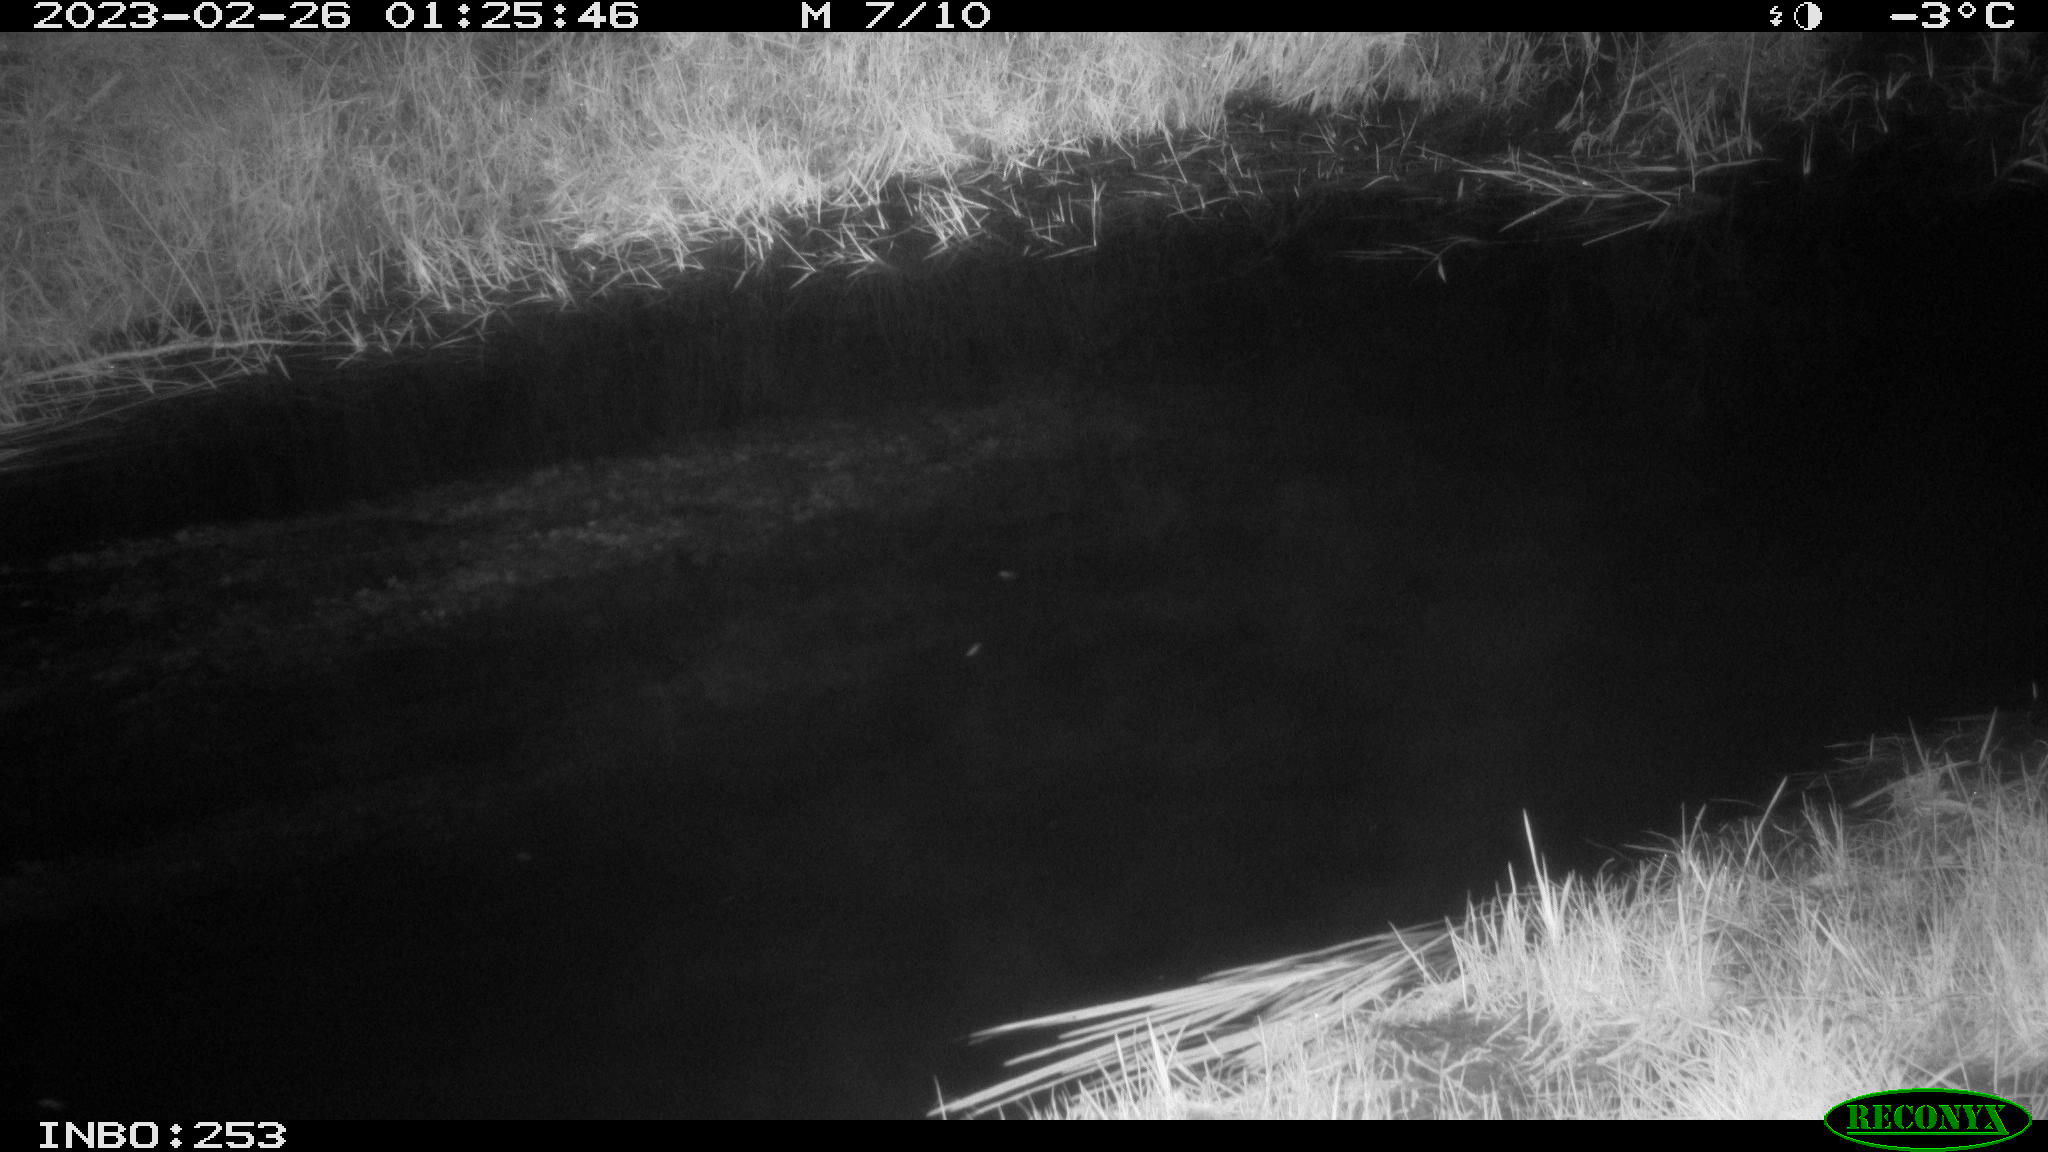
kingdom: Animalia
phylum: Chordata
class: Aves
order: Anseriformes
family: Anatidae
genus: Anas
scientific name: Anas
